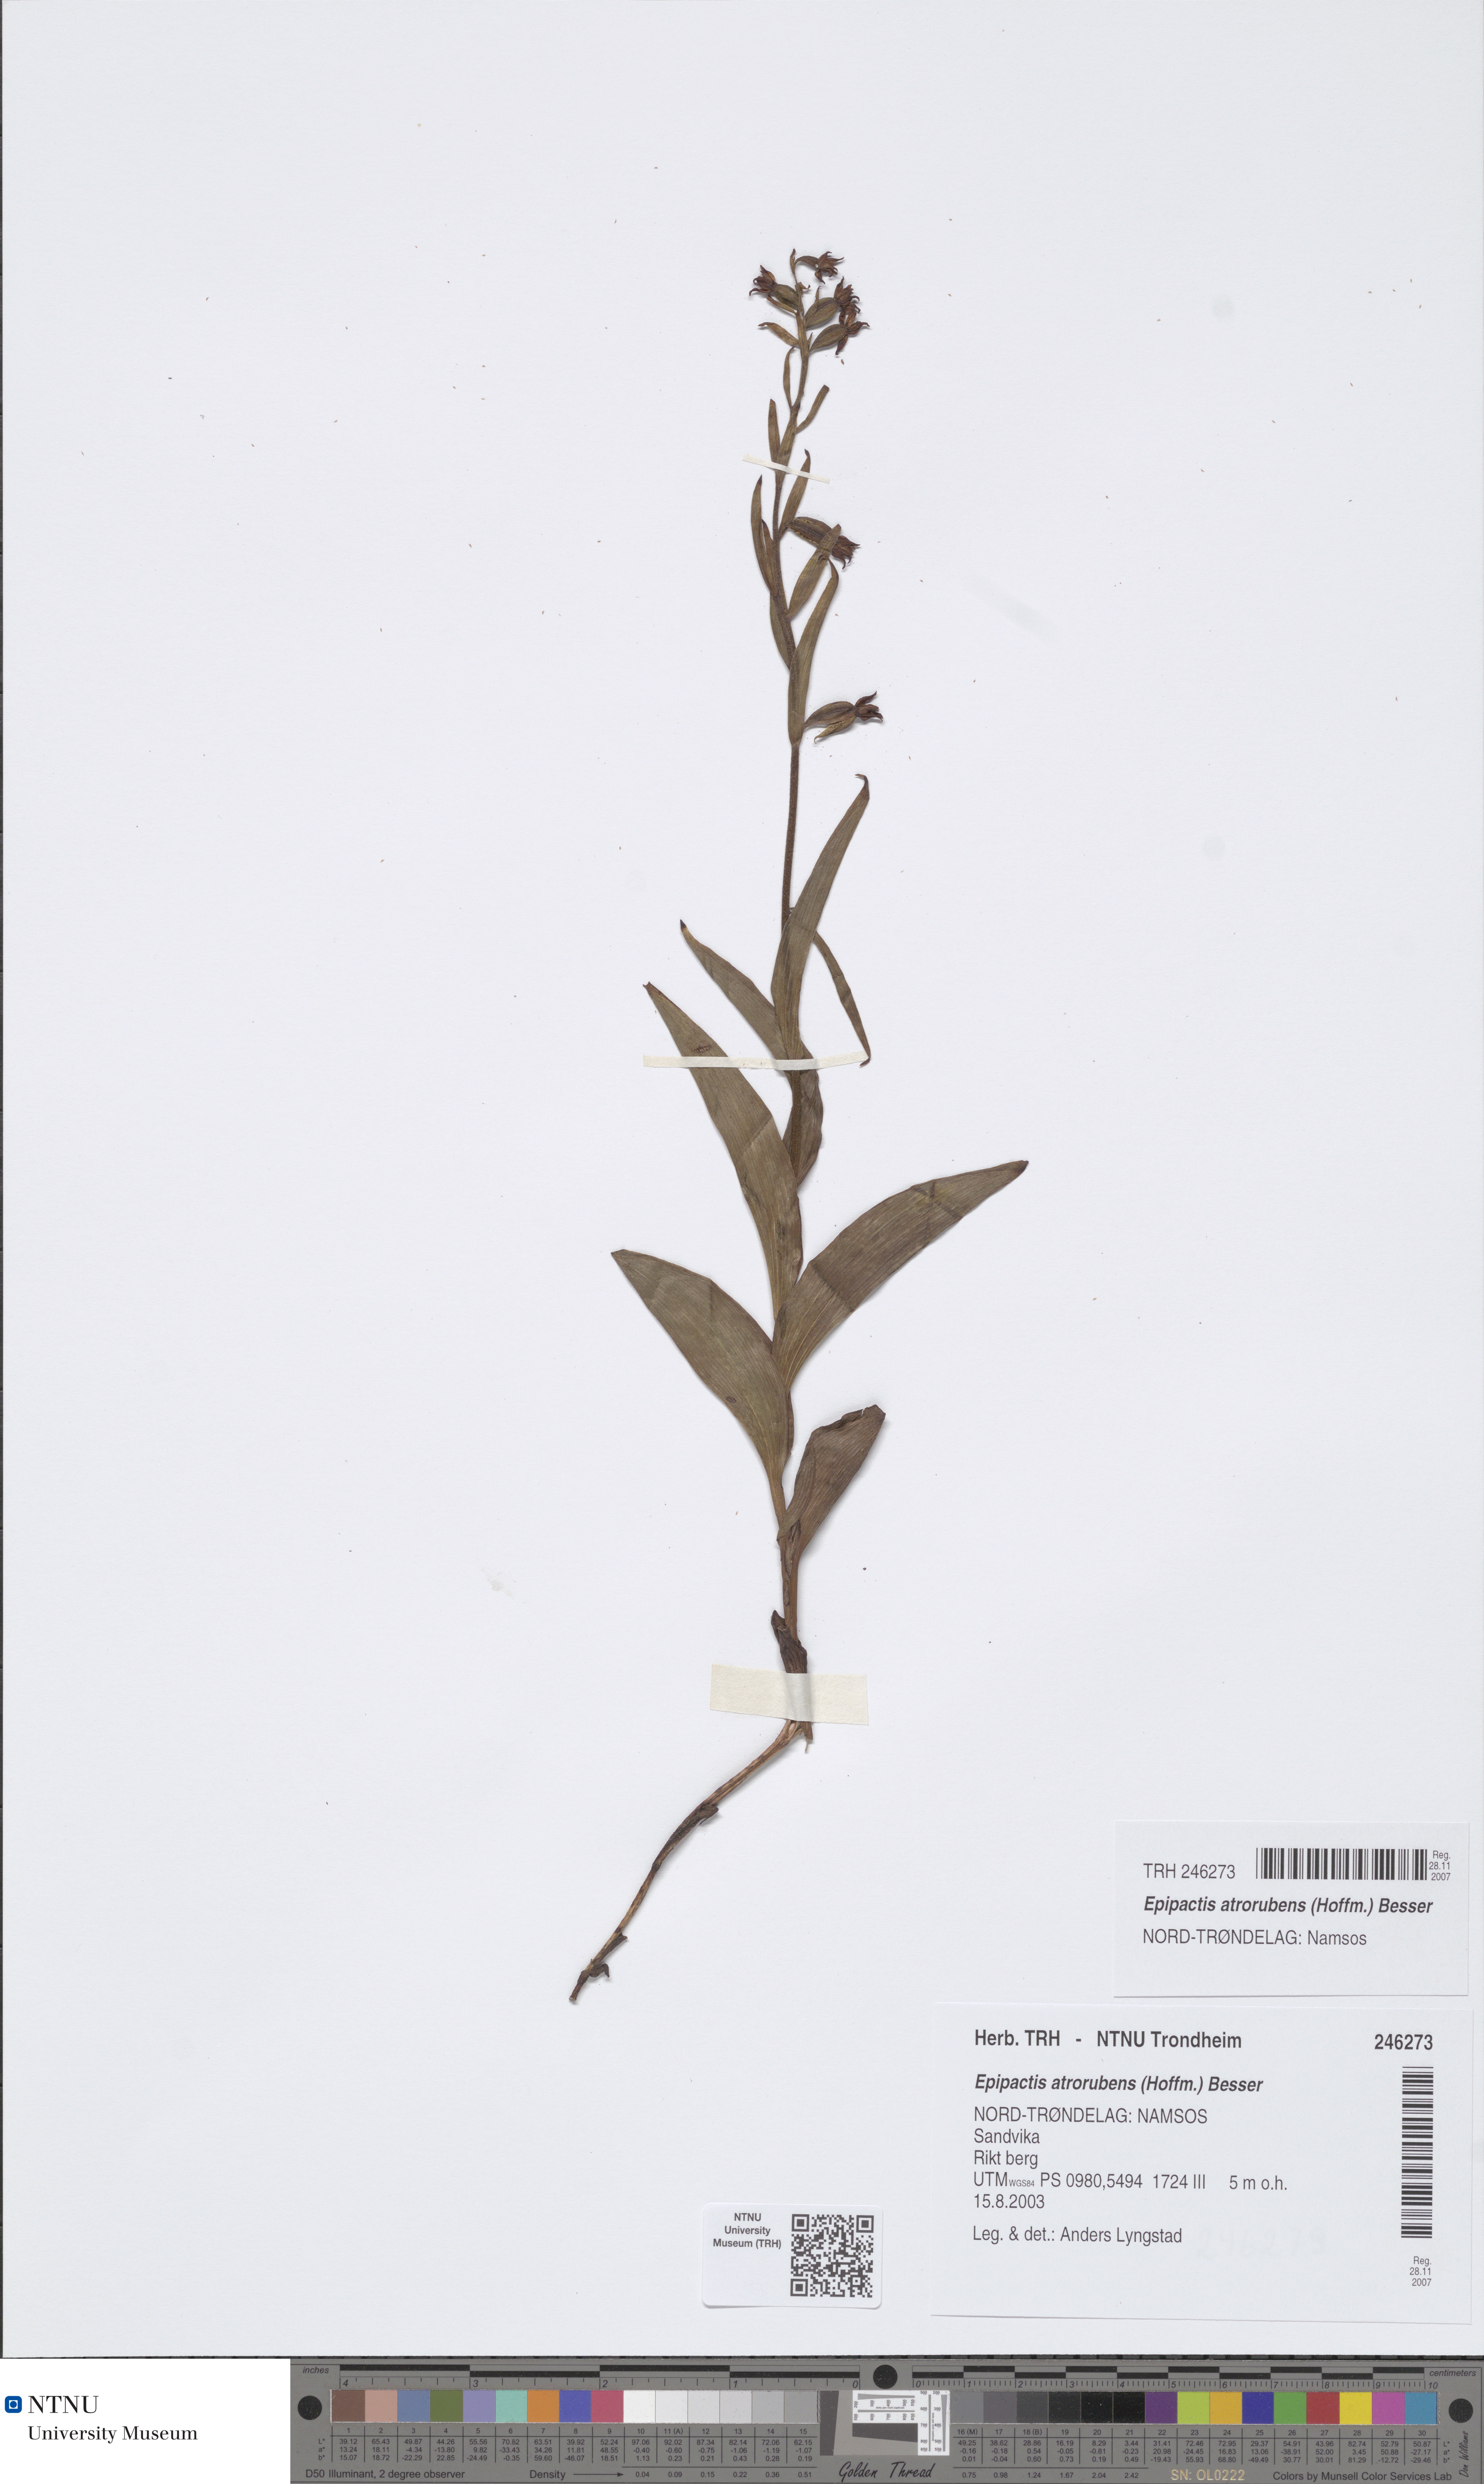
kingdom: Plantae
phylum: Tracheophyta
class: Liliopsida
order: Asparagales
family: Orchidaceae
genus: Epipactis
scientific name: Epipactis atrorubens
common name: Dark-red helleborine
